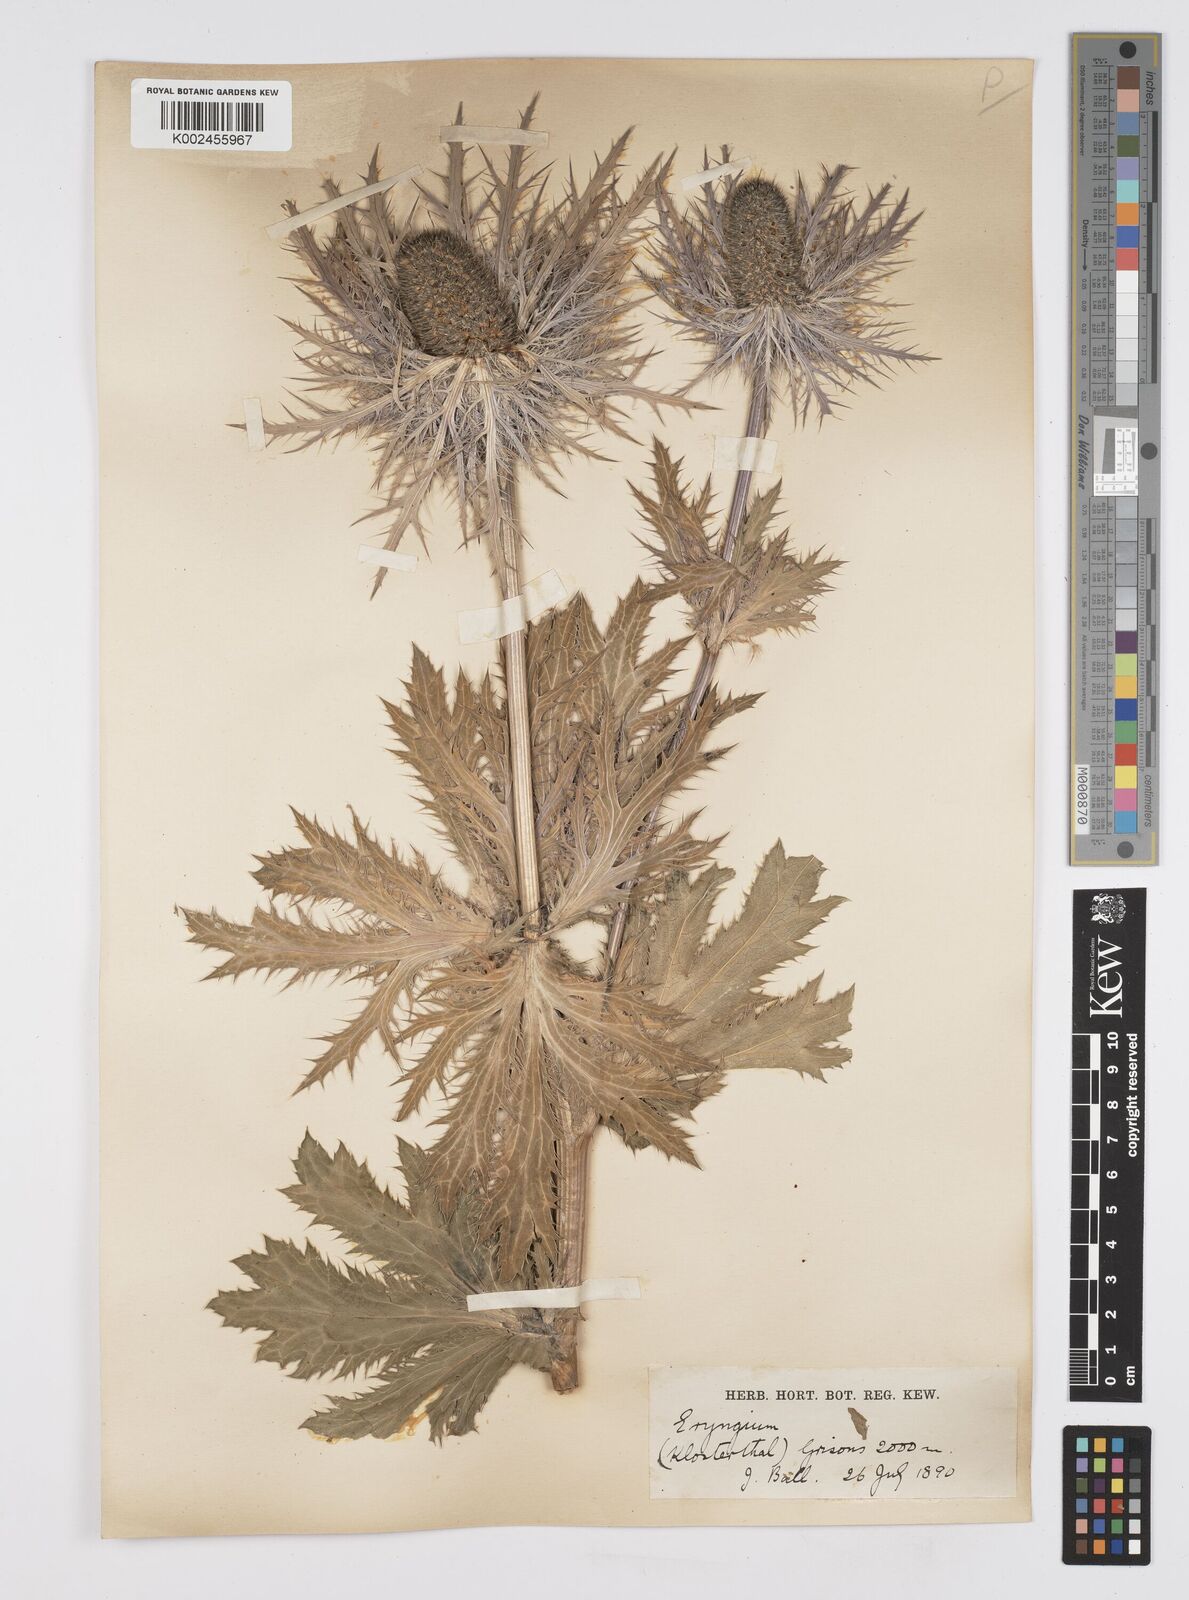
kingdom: Plantae
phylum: Tracheophyta
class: Magnoliopsida
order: Apiales
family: Apiaceae
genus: Eryngium
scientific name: Eryngium alpinum
